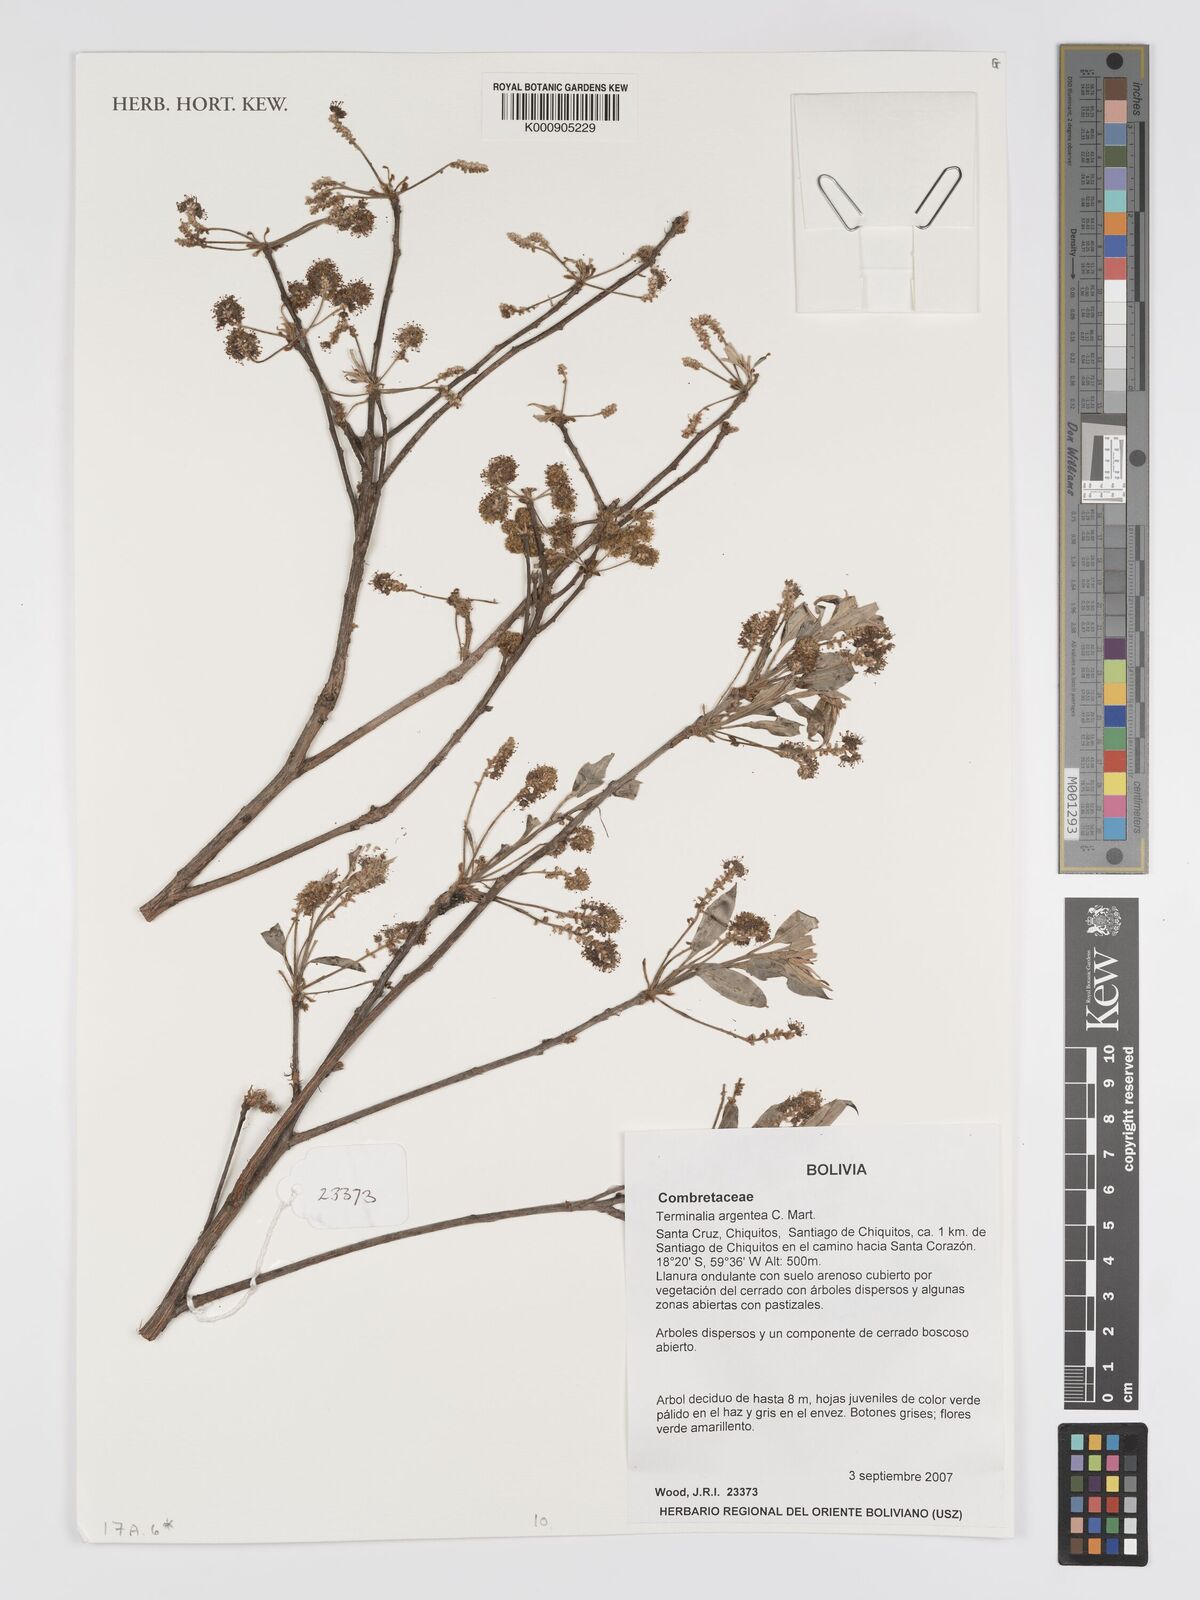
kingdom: Plantae
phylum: Tracheophyta
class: Magnoliopsida
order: Myrtales
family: Combretaceae
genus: Terminalia
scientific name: Terminalia argentea
